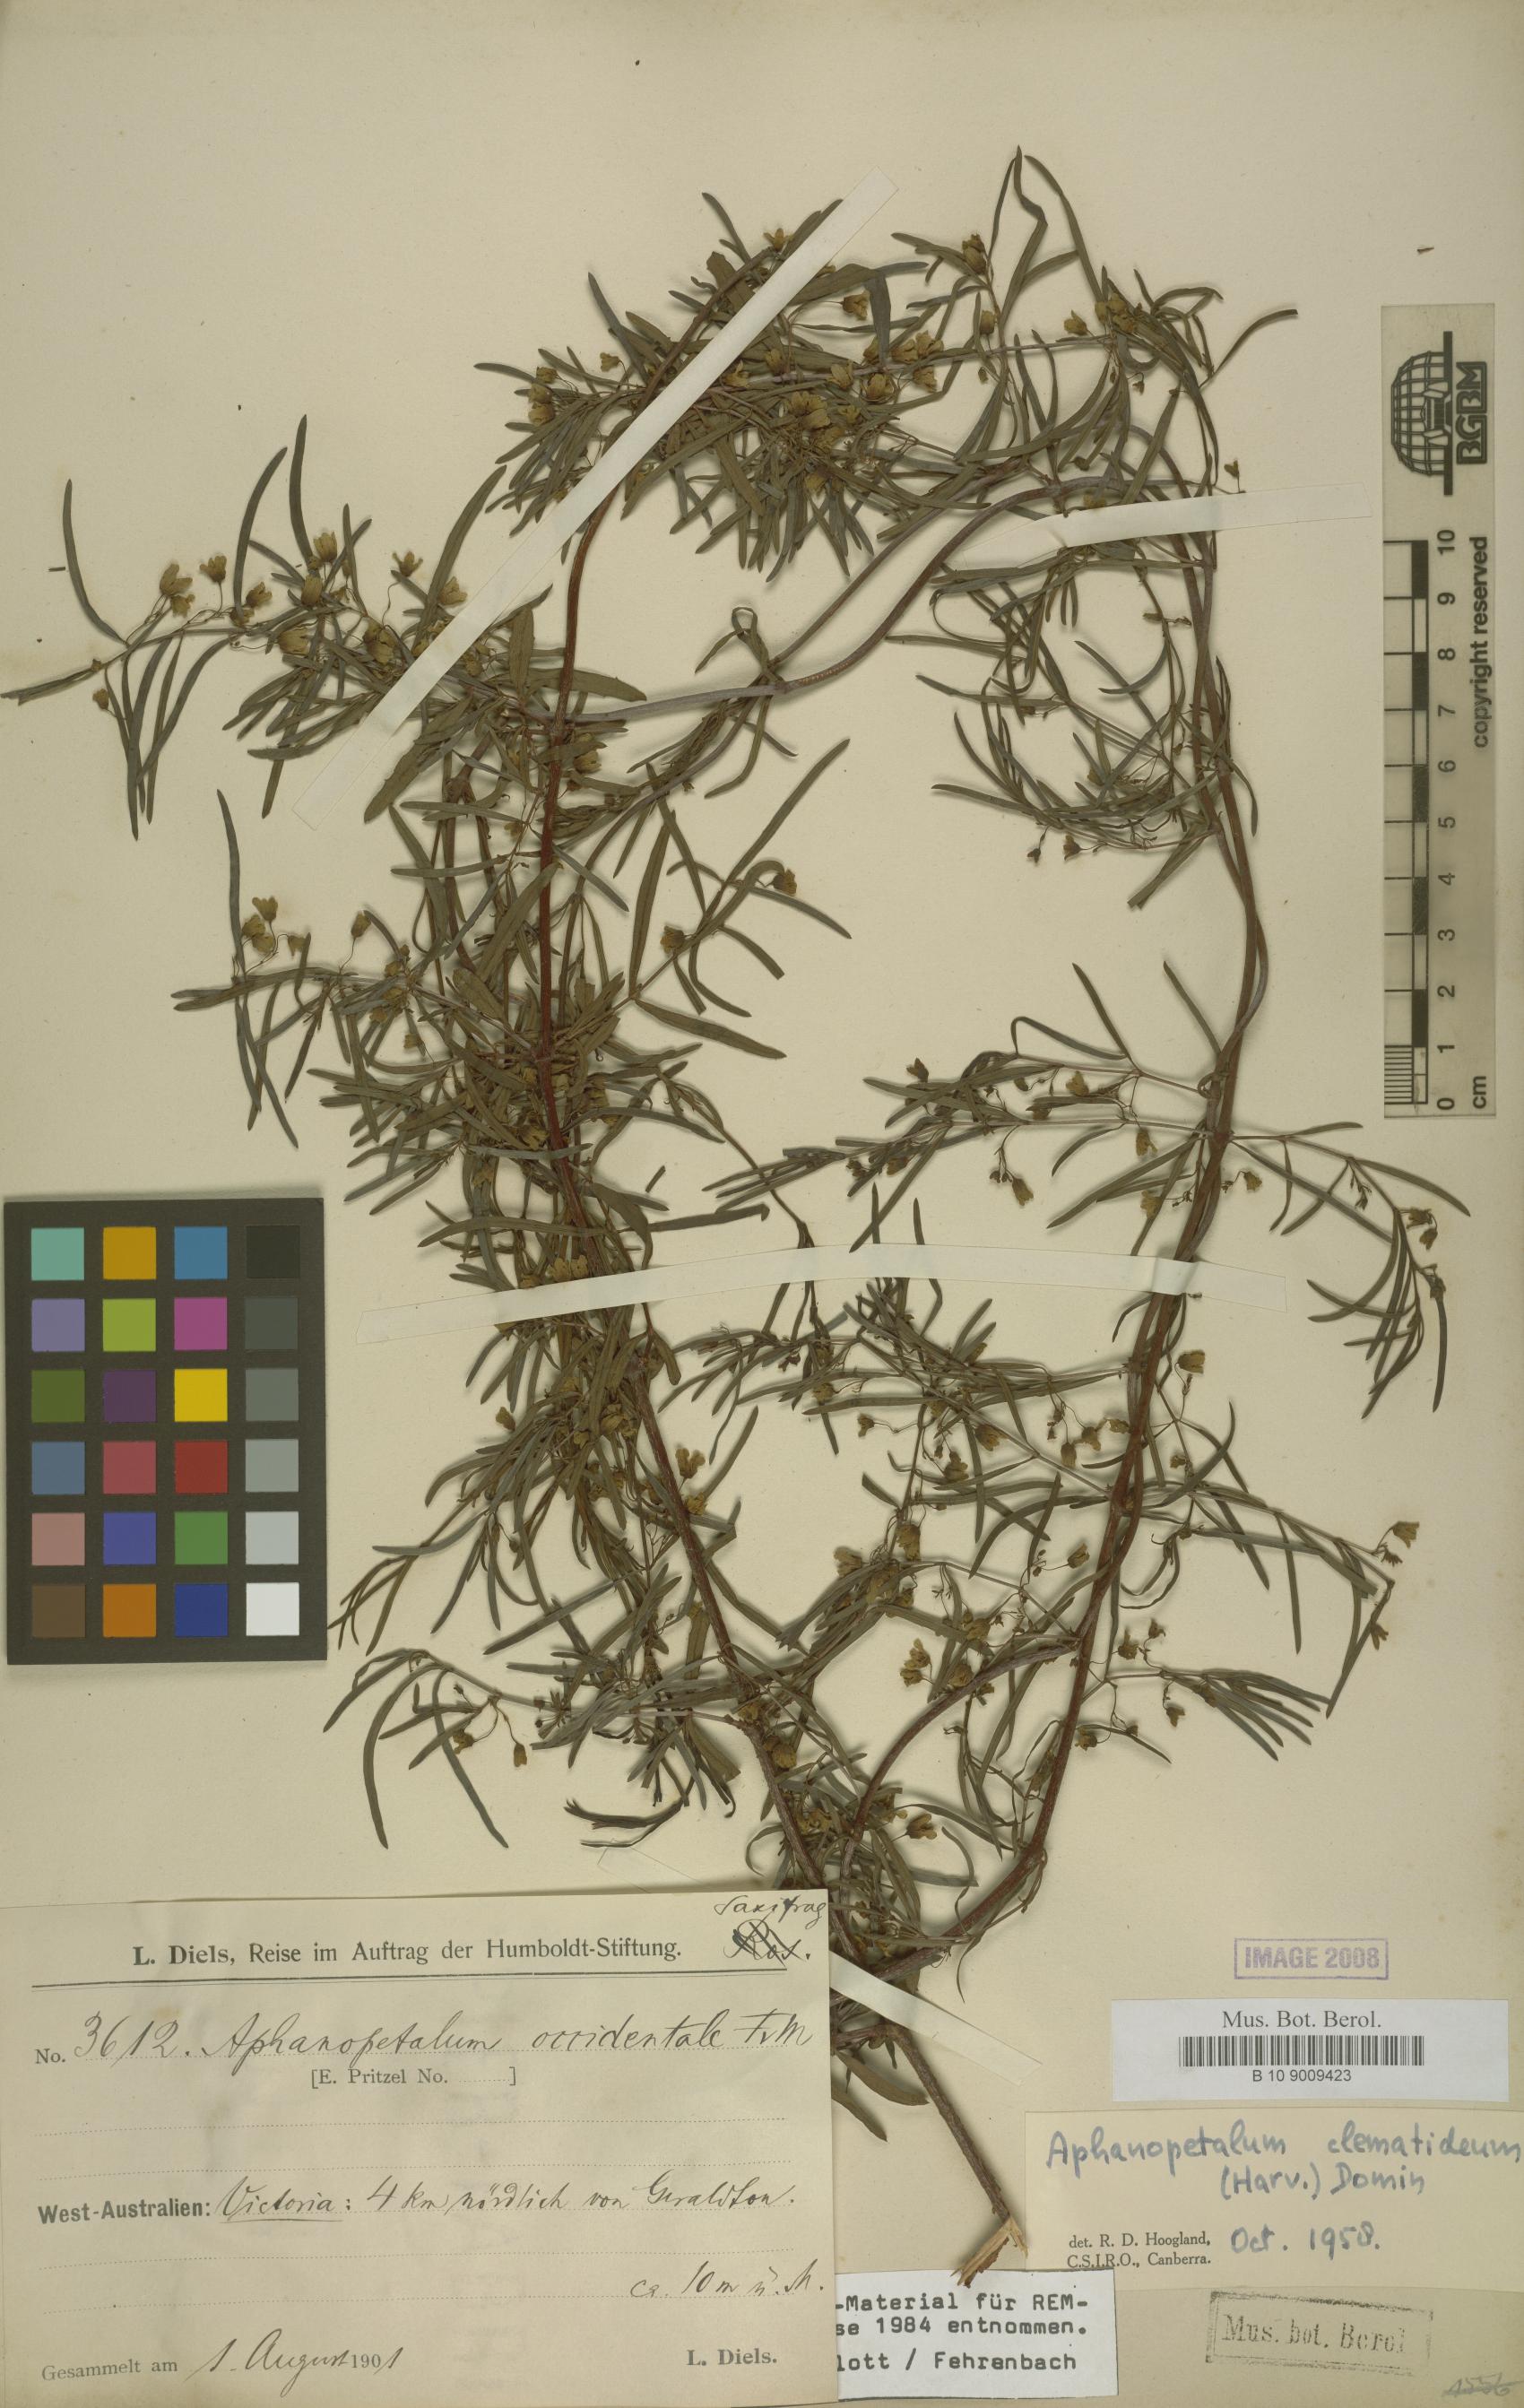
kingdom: Plantae
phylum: Tracheophyta
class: Magnoliopsida
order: Saxifragales
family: Aphanopetalaceae
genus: Aphanopetalum
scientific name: Aphanopetalum clematideum
